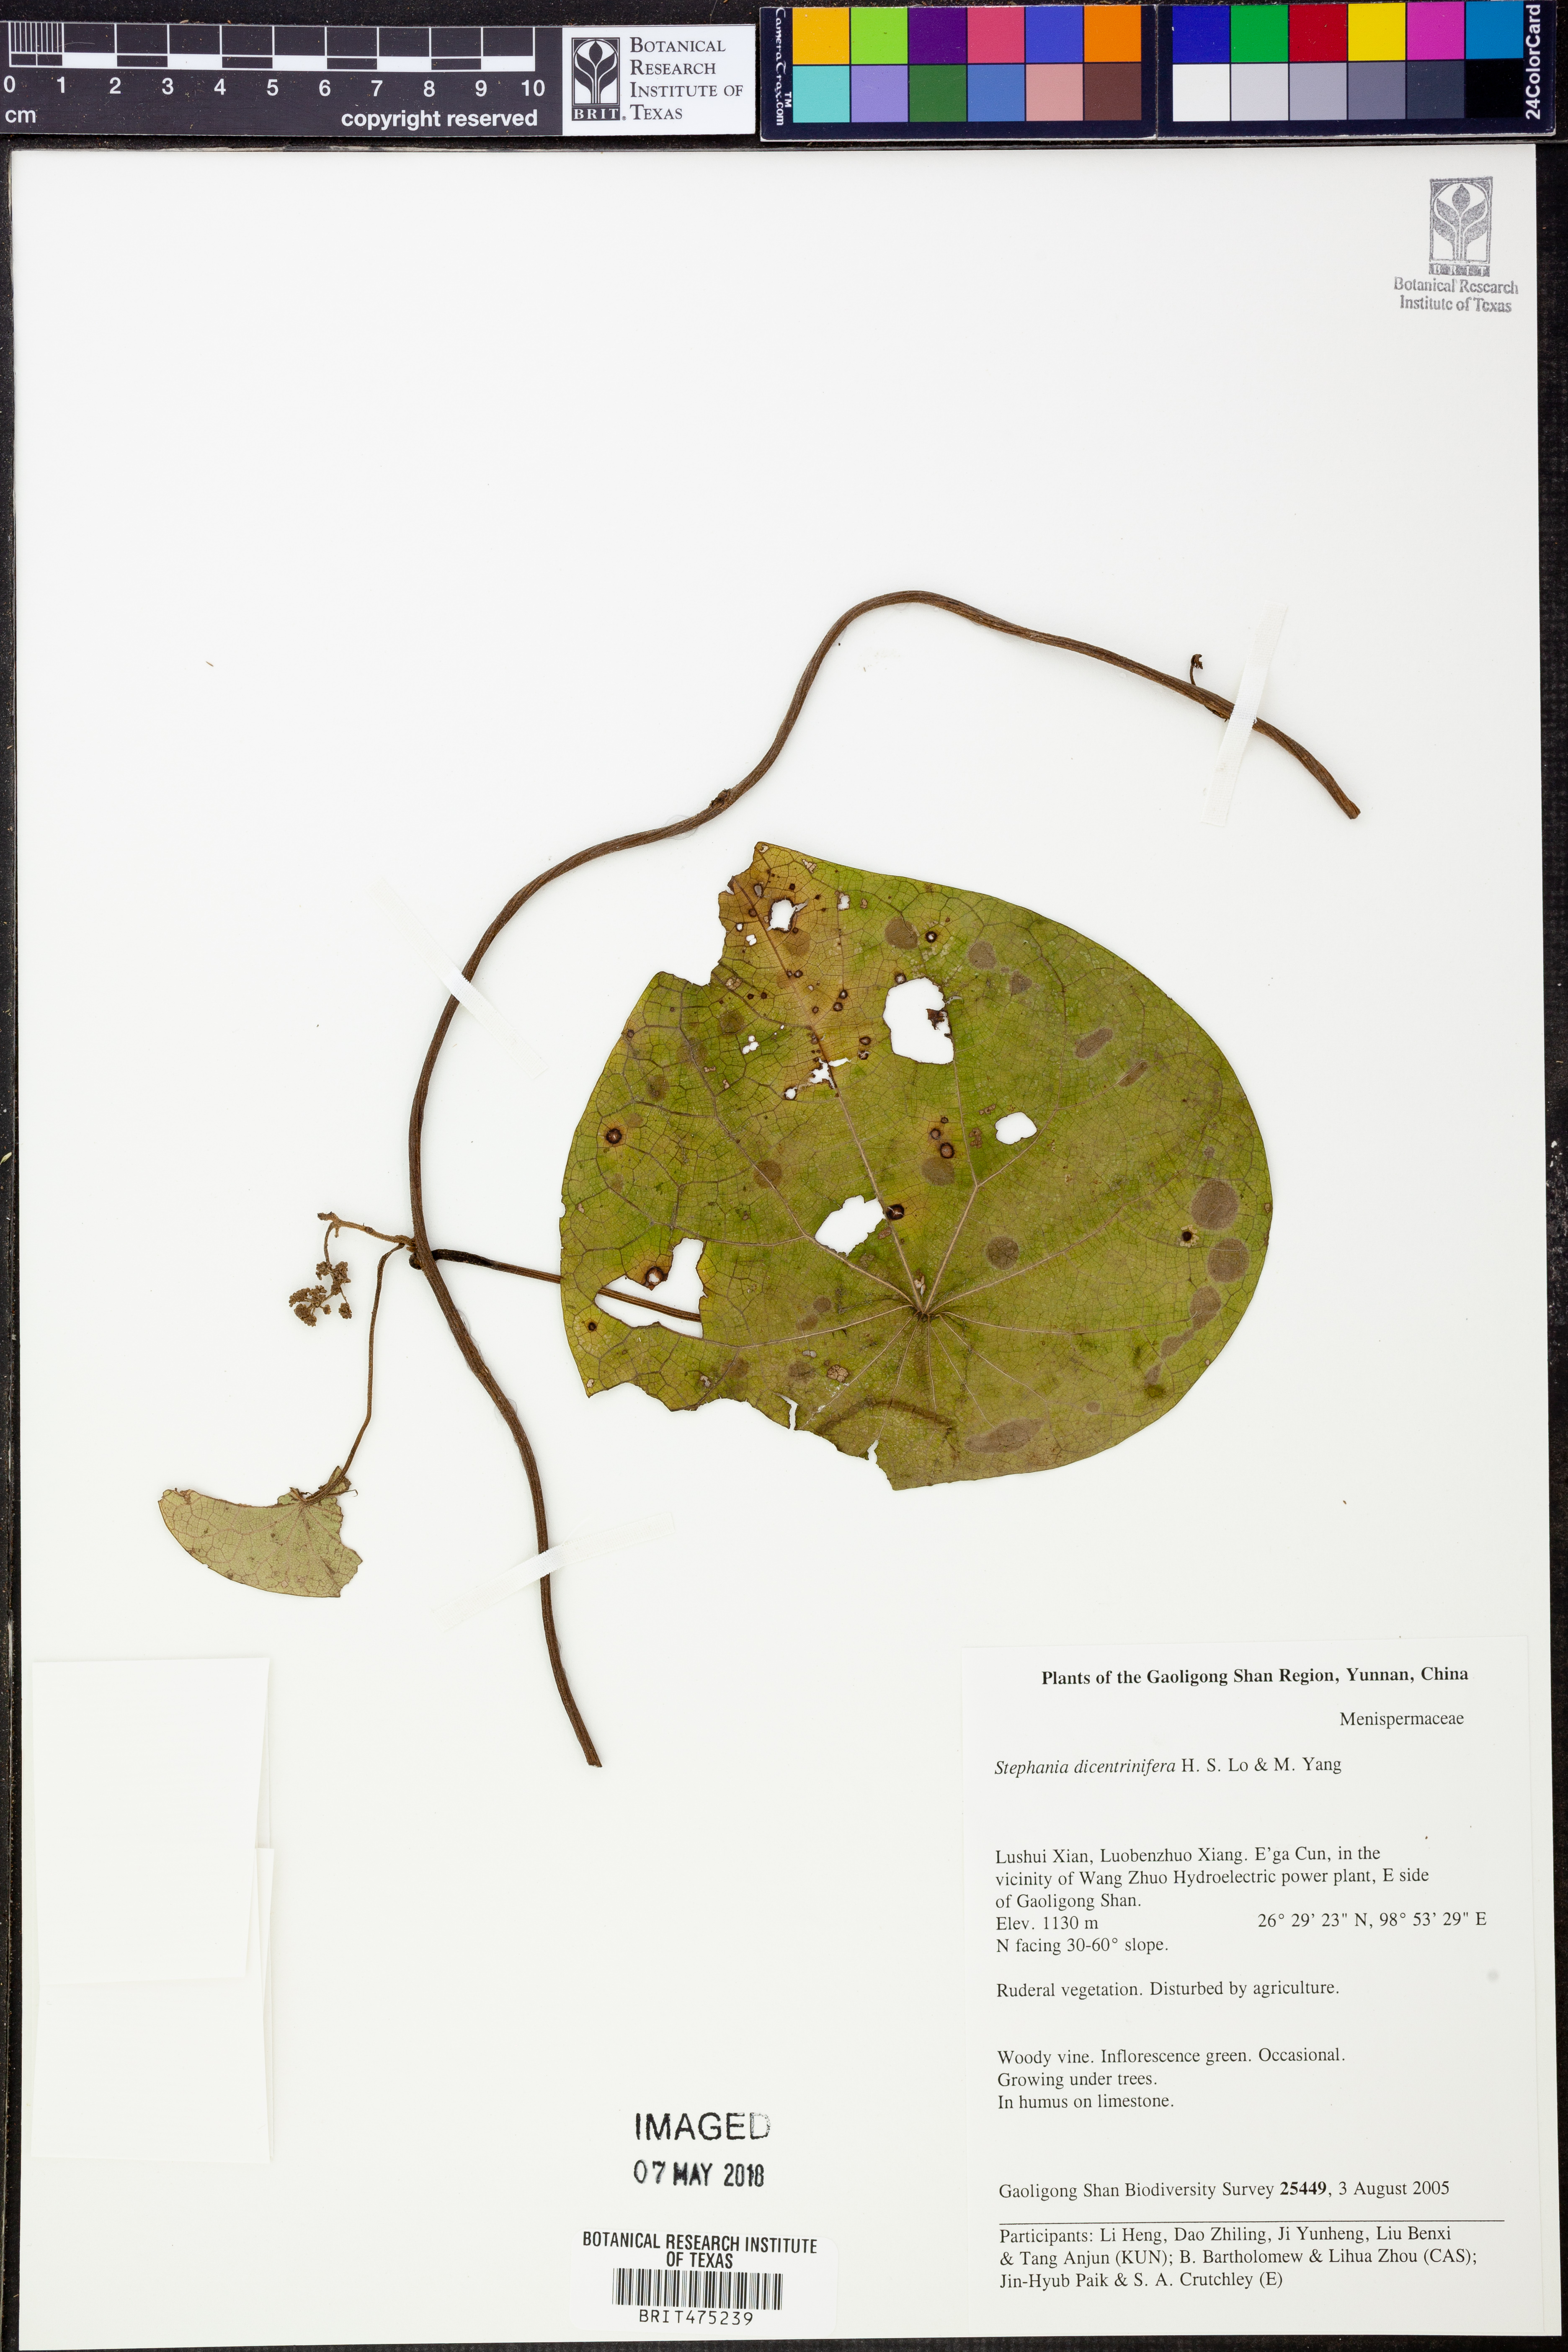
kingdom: Plantae
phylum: Tracheophyta
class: Magnoliopsida
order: Ranunculales
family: Menispermaceae
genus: Stephania
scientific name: Stephania dicentrinifera
